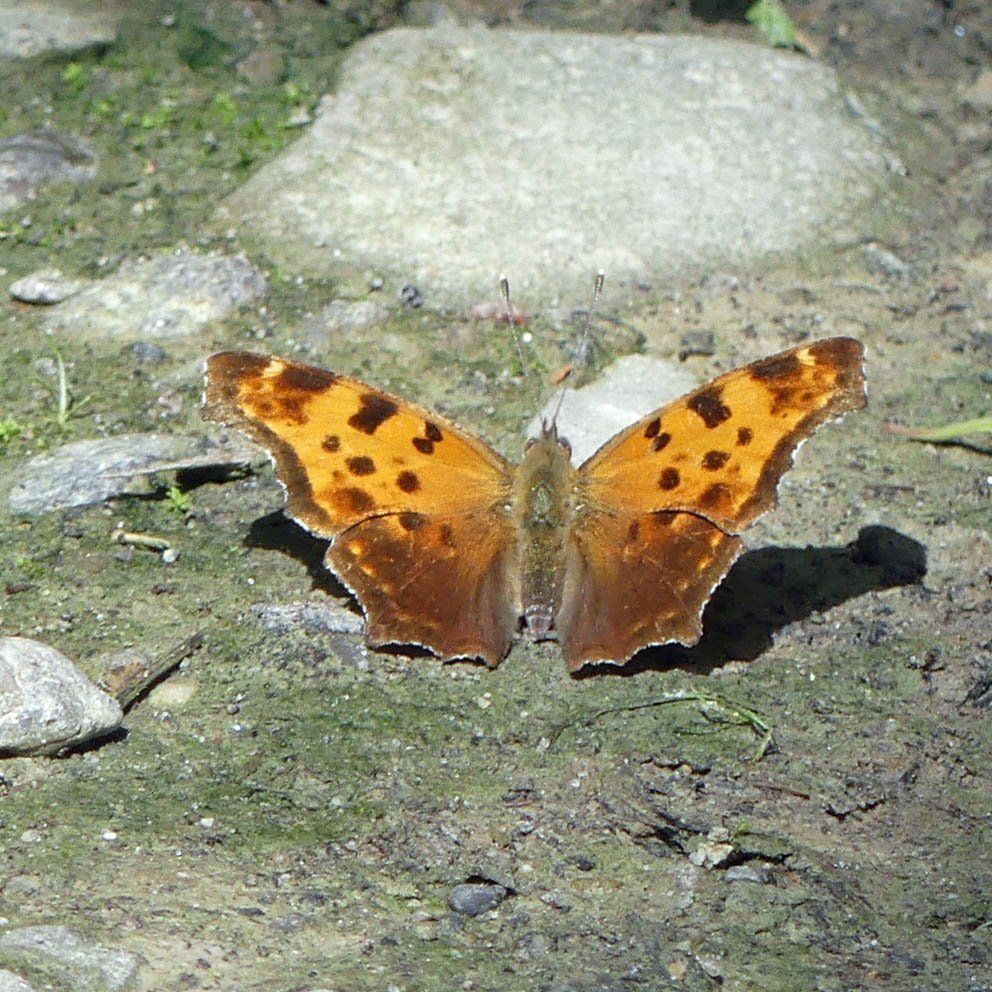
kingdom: Animalia
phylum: Arthropoda
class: Insecta
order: Lepidoptera
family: Nymphalidae
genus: Polygonia
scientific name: Polygonia comma
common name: Eastern Comma
